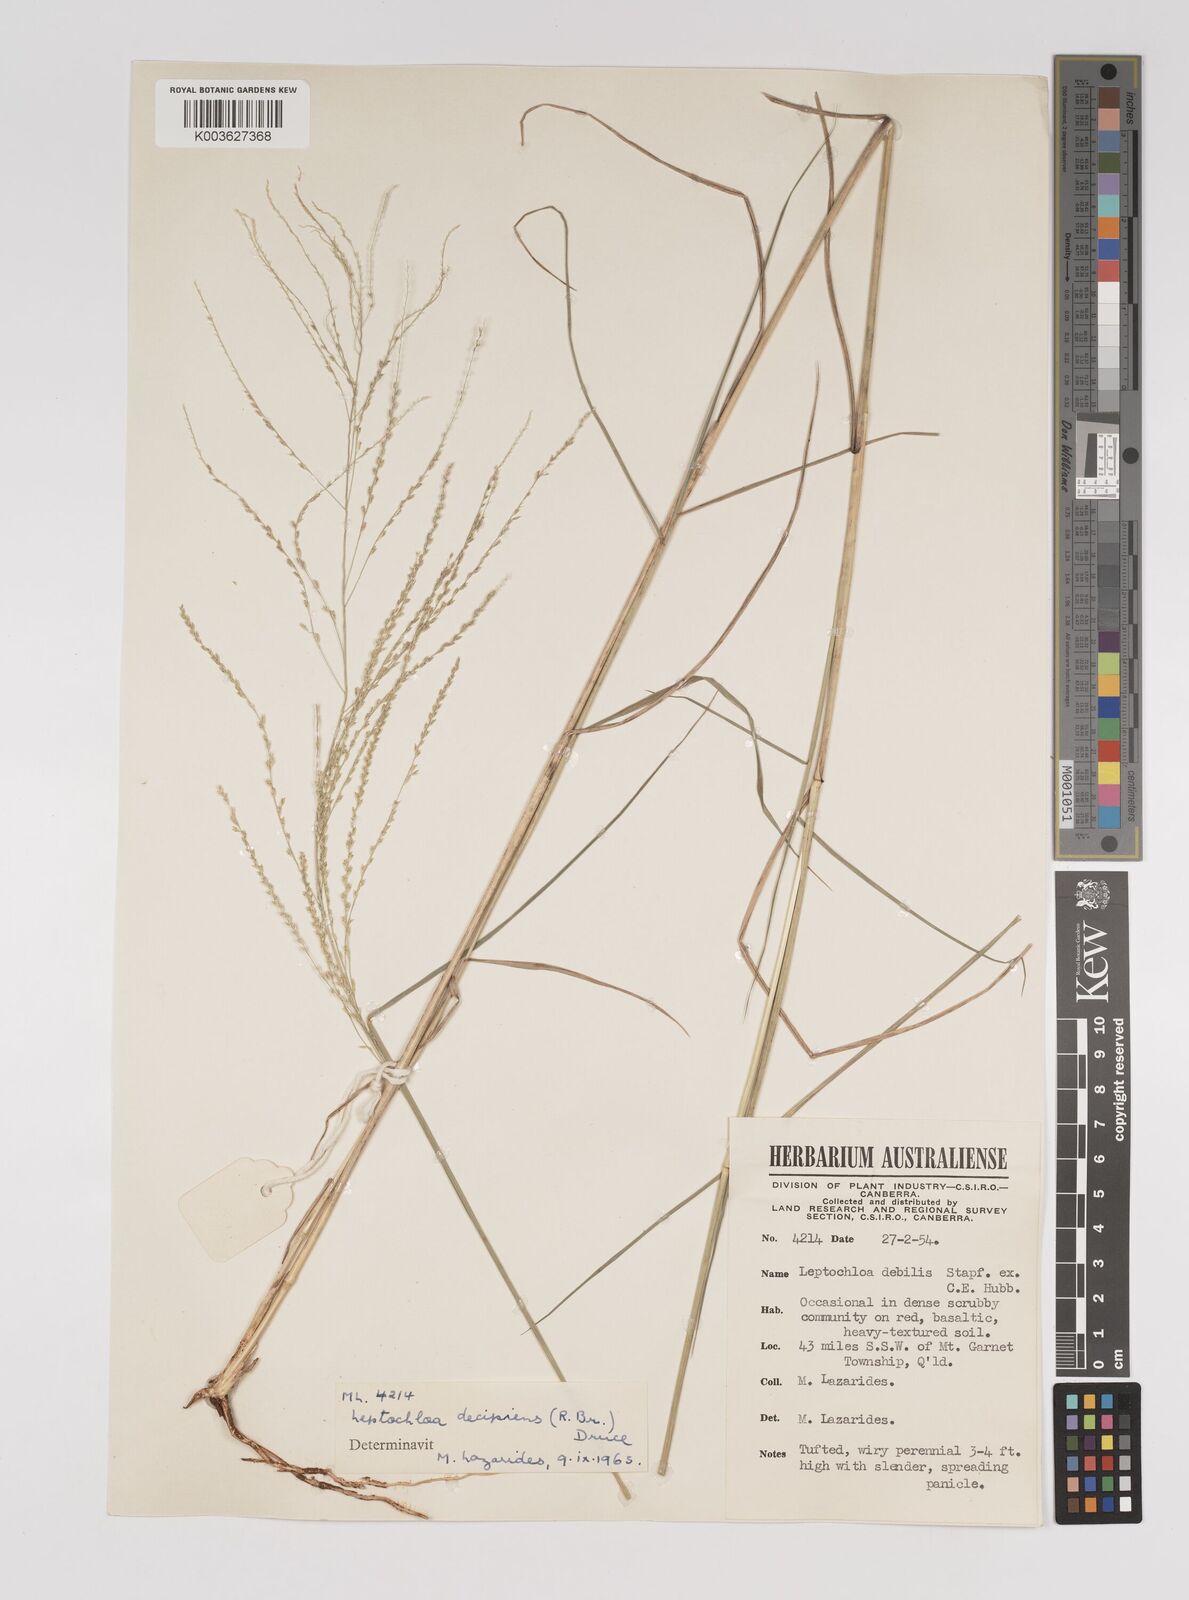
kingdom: Plantae
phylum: Tracheophyta
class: Liliopsida
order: Poales
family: Poaceae
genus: Leptochloa
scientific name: Leptochloa decipiens
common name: Australian sprangletop
